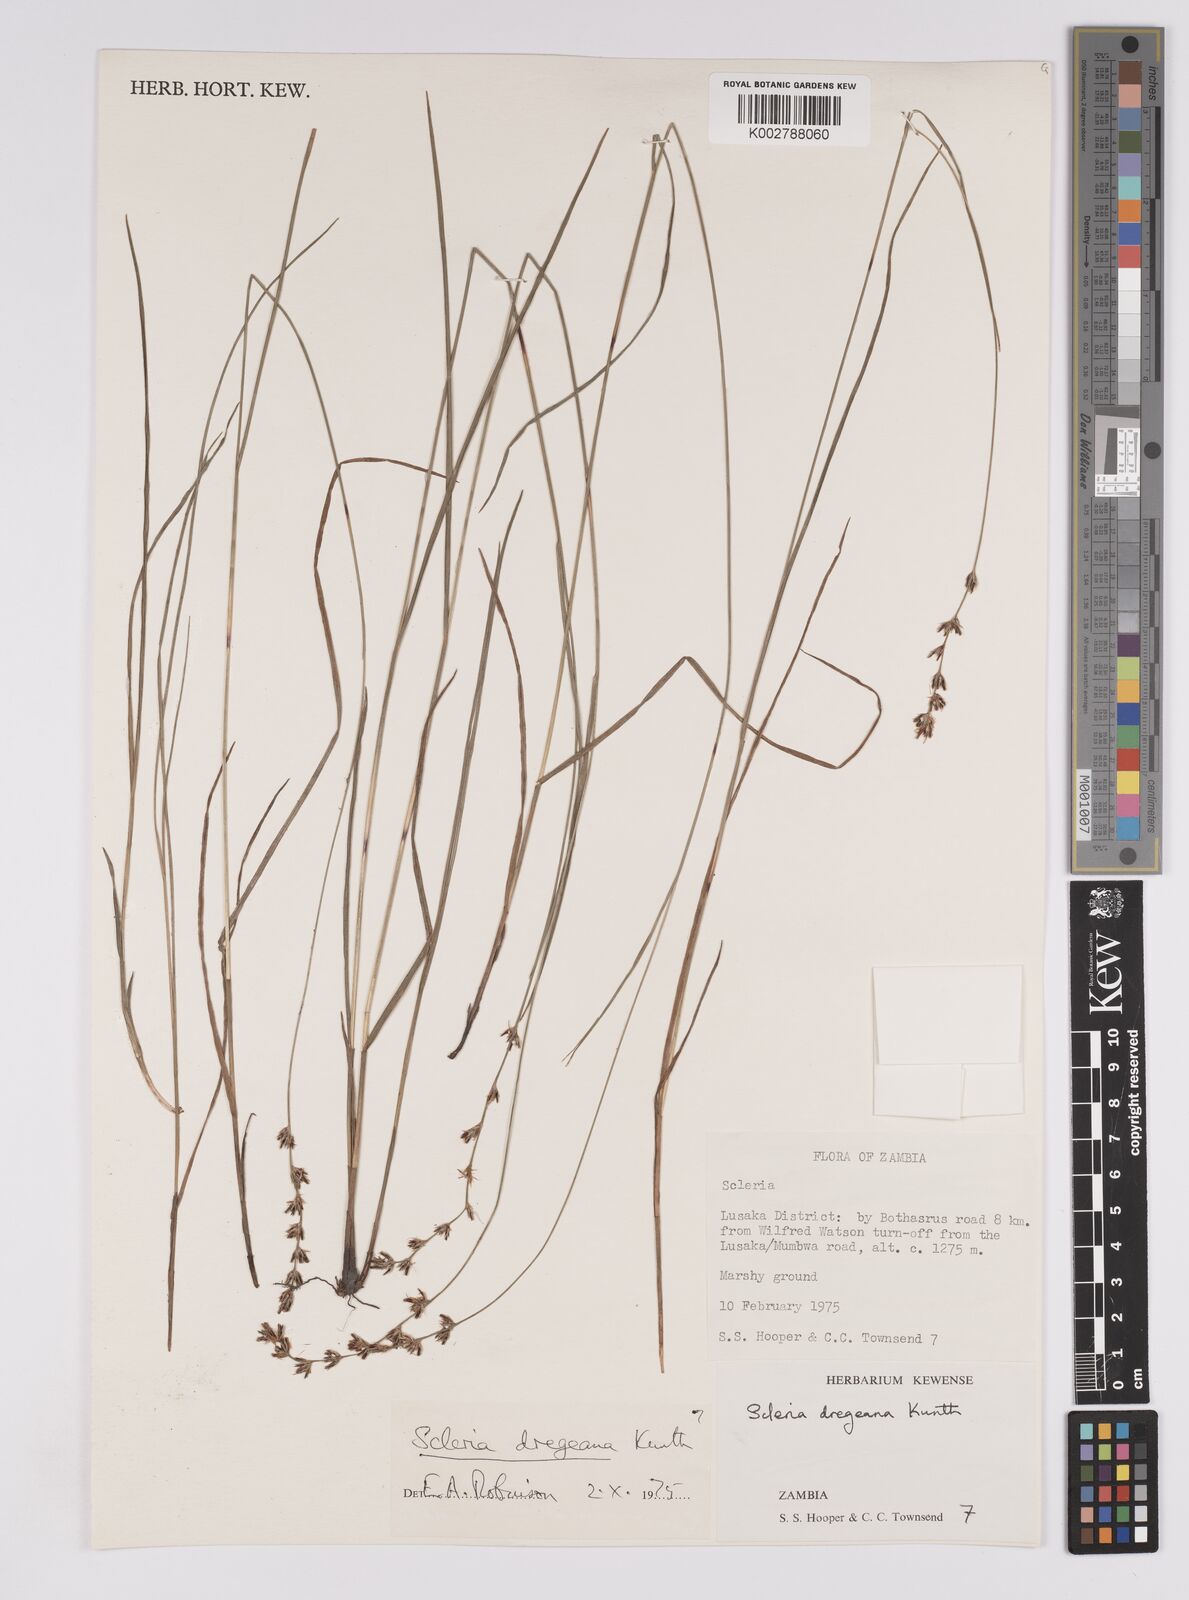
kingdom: Plantae
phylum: Tracheophyta
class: Liliopsida
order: Poales
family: Cyperaceae
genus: Scleria
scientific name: Scleria dregeana
